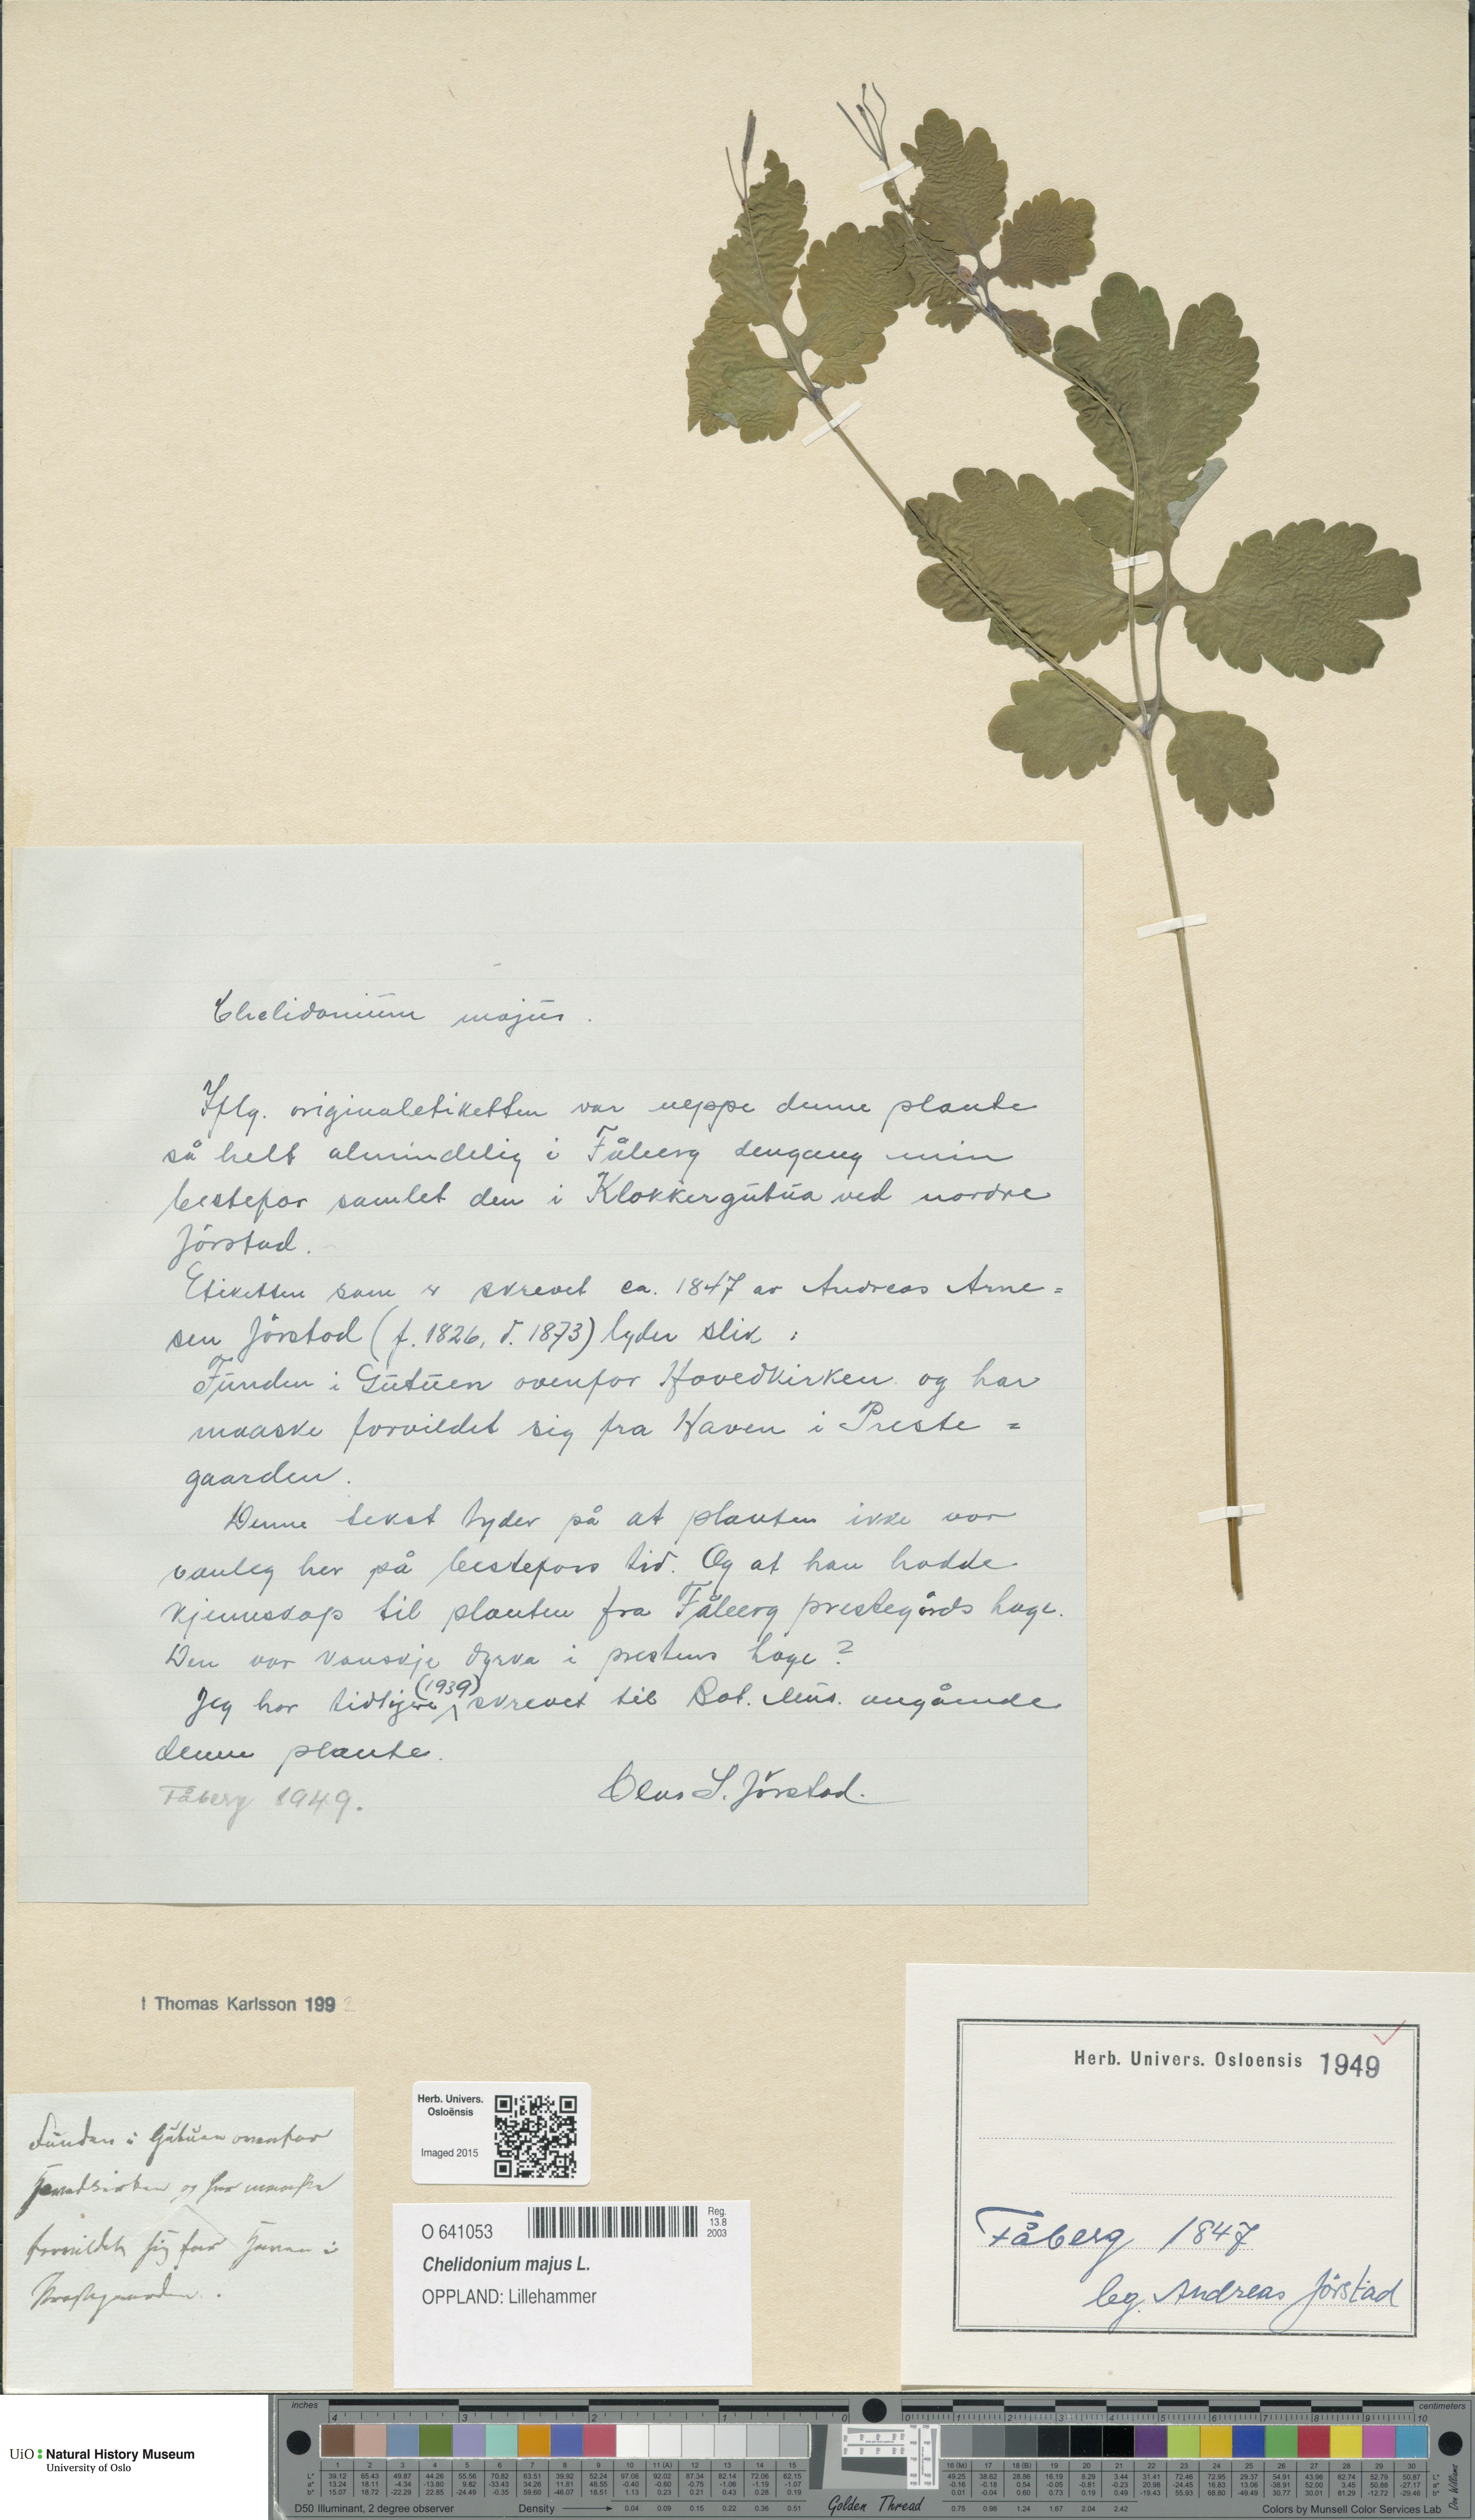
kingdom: Plantae
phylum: Tracheophyta
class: Magnoliopsida
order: Ranunculales
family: Papaveraceae
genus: Chelidonium
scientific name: Chelidonium majus
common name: Greater celandine
